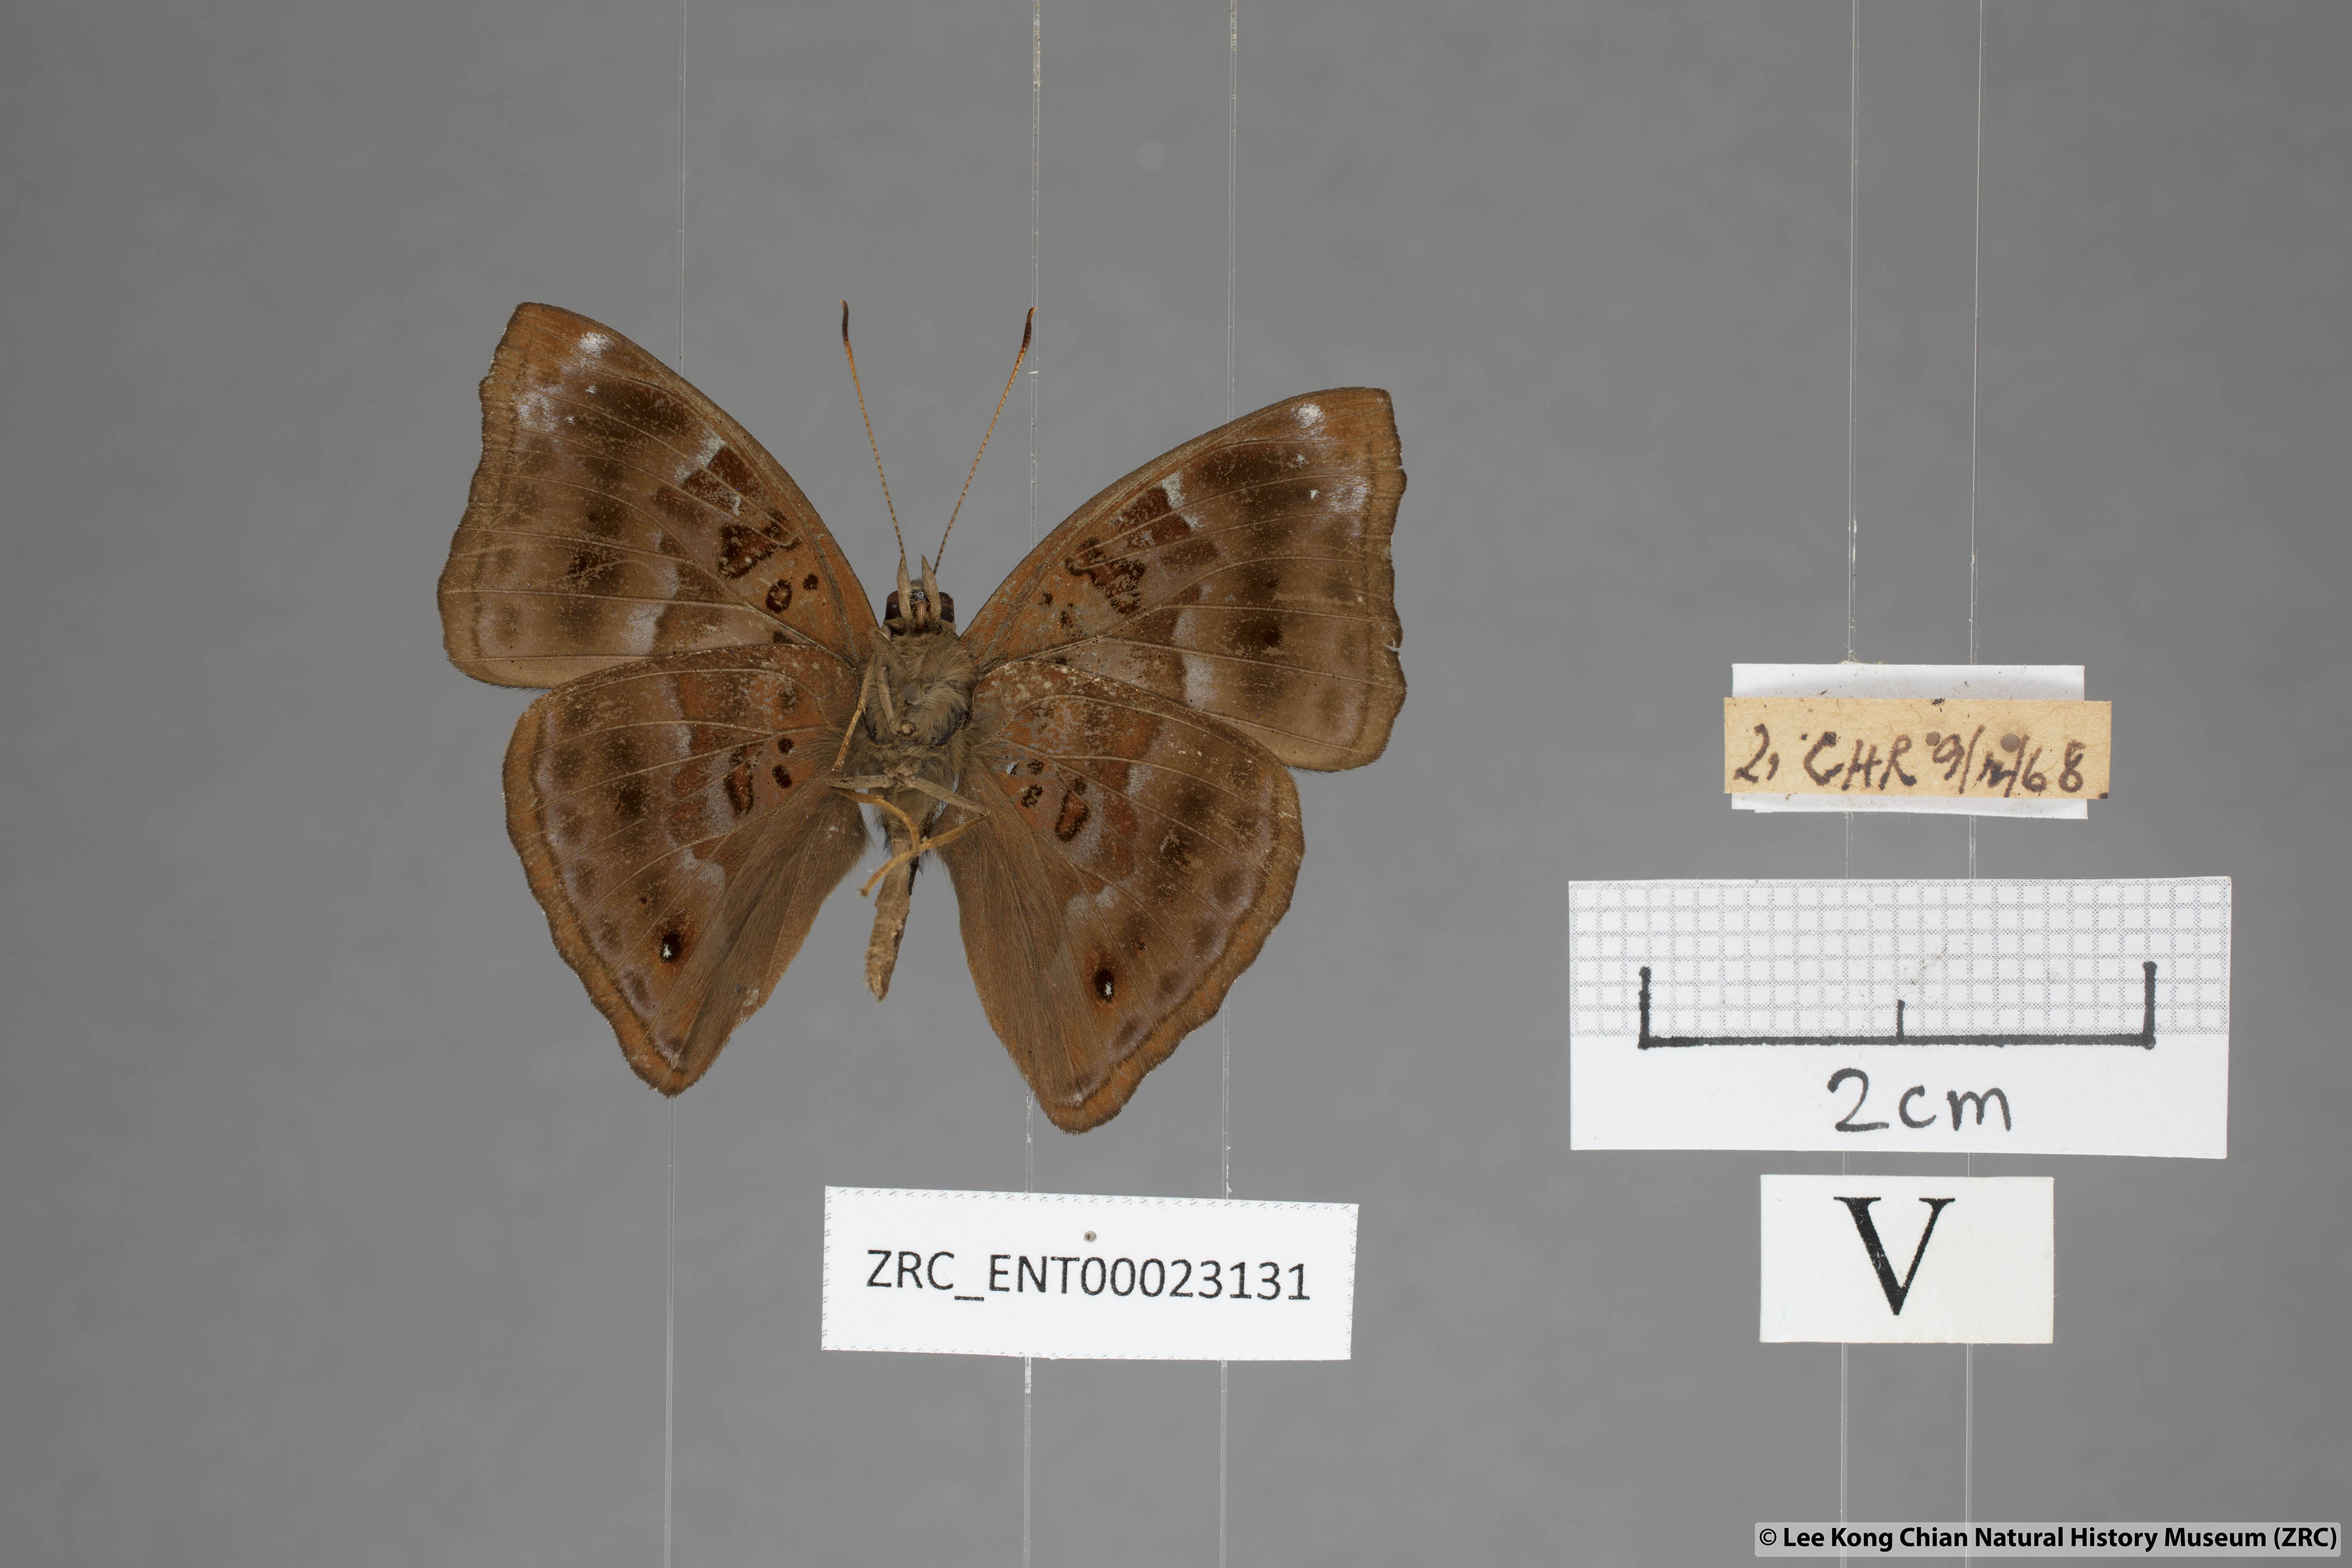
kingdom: Animalia
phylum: Arthropoda
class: Insecta
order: Lepidoptera
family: Nymphalidae
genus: Apatura
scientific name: Apatura Rohana spec
